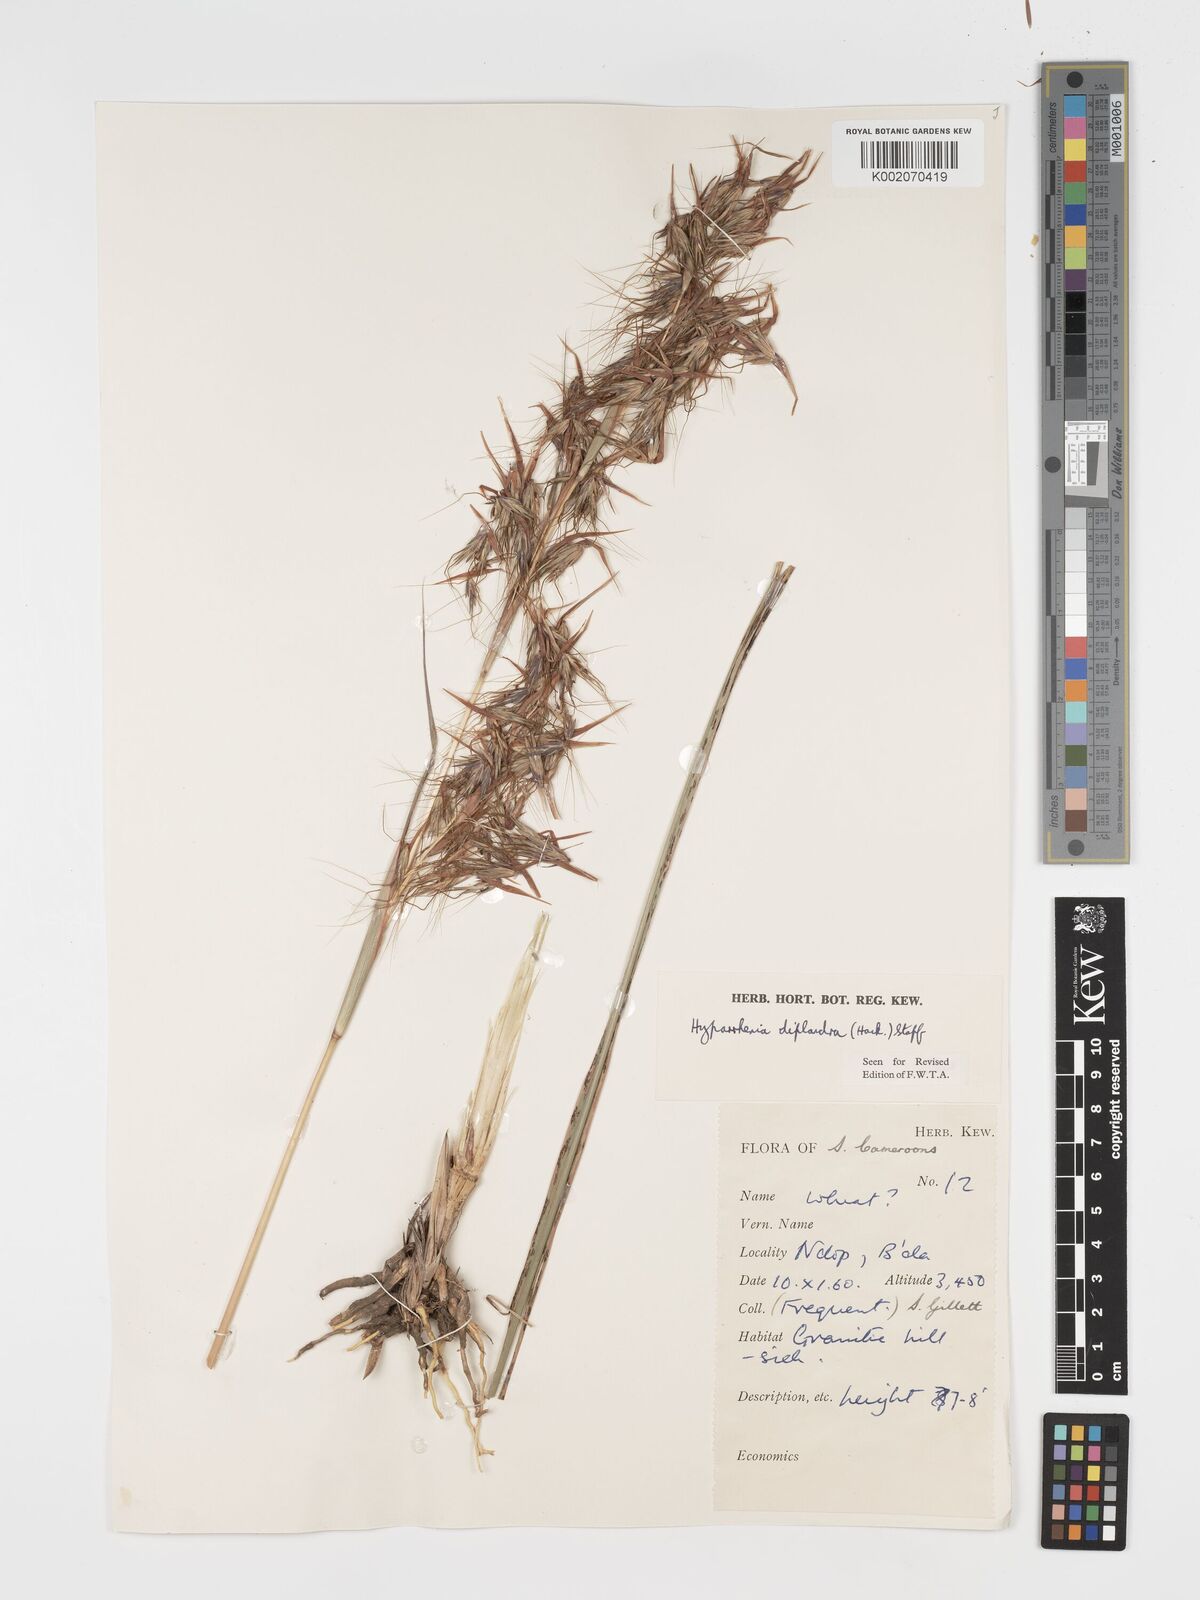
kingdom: Plantae
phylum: Tracheophyta
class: Liliopsida
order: Poales
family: Poaceae
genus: Hyparrhenia
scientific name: Hyparrhenia diplandra
